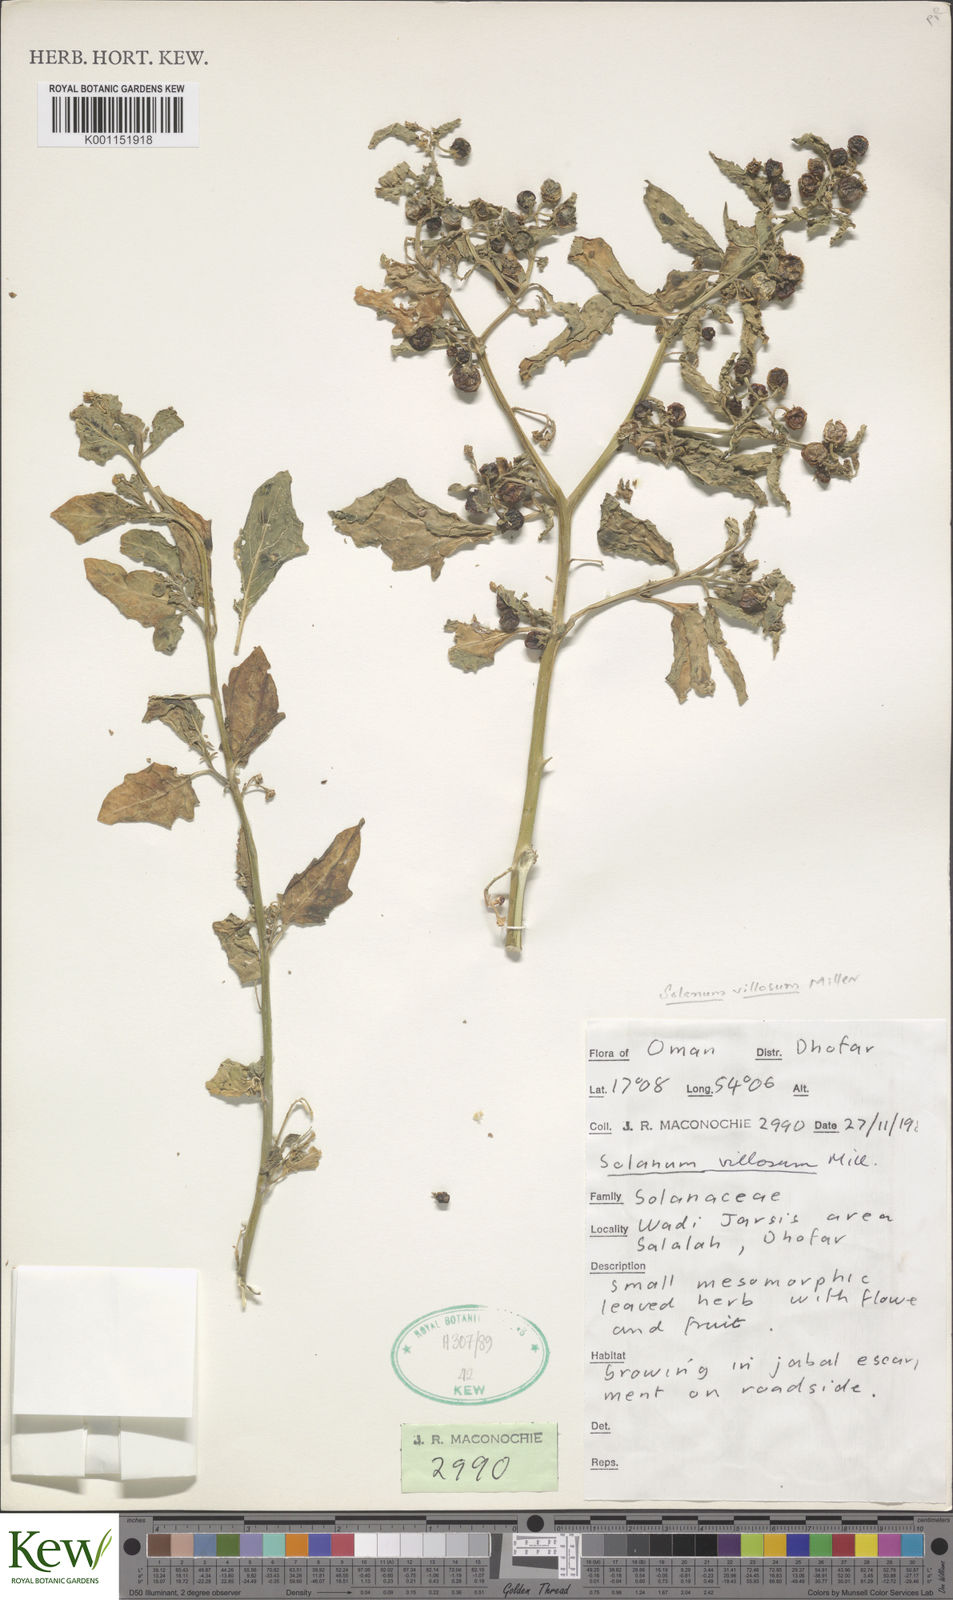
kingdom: Plantae
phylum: Tracheophyta
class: Magnoliopsida
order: Solanales
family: Solanaceae
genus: Solanum
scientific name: Solanum villosum
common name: Red nightshade
